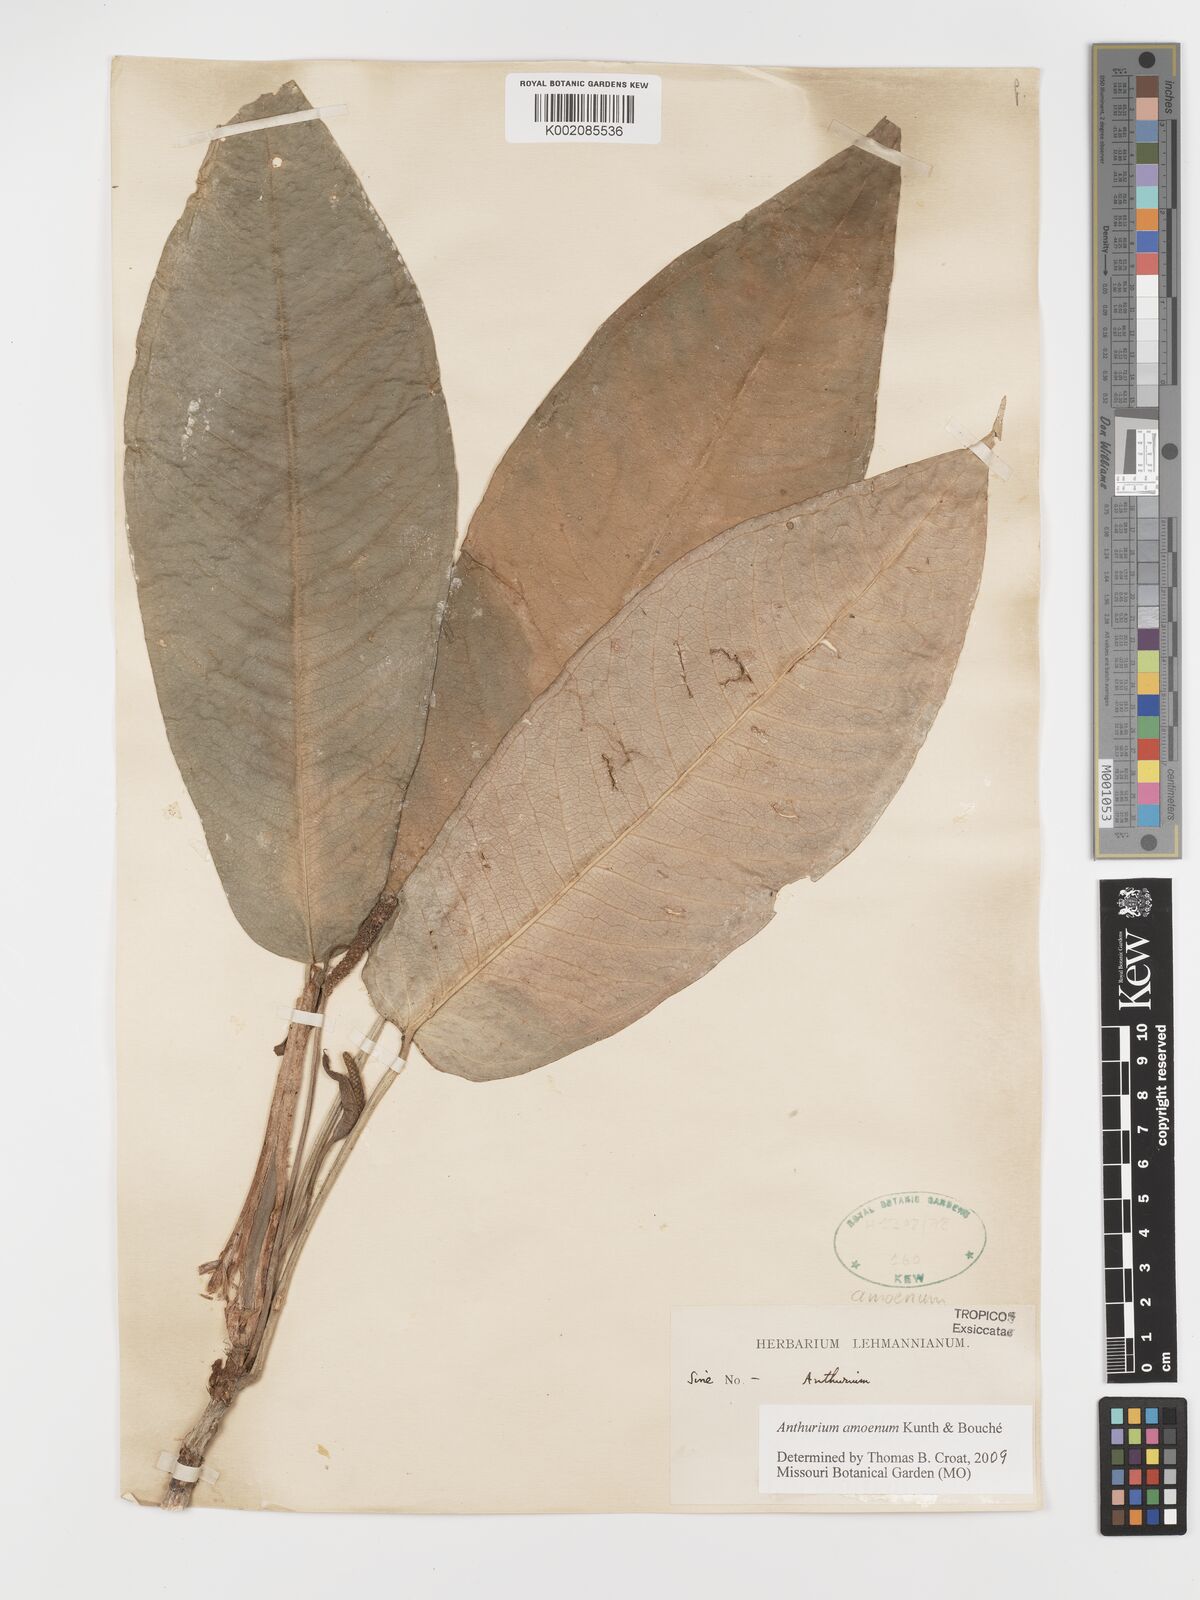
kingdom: Plantae
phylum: Tracheophyta
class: Liliopsida
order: Alismatales
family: Araceae
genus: Anthurium
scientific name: Anthurium amoenum
